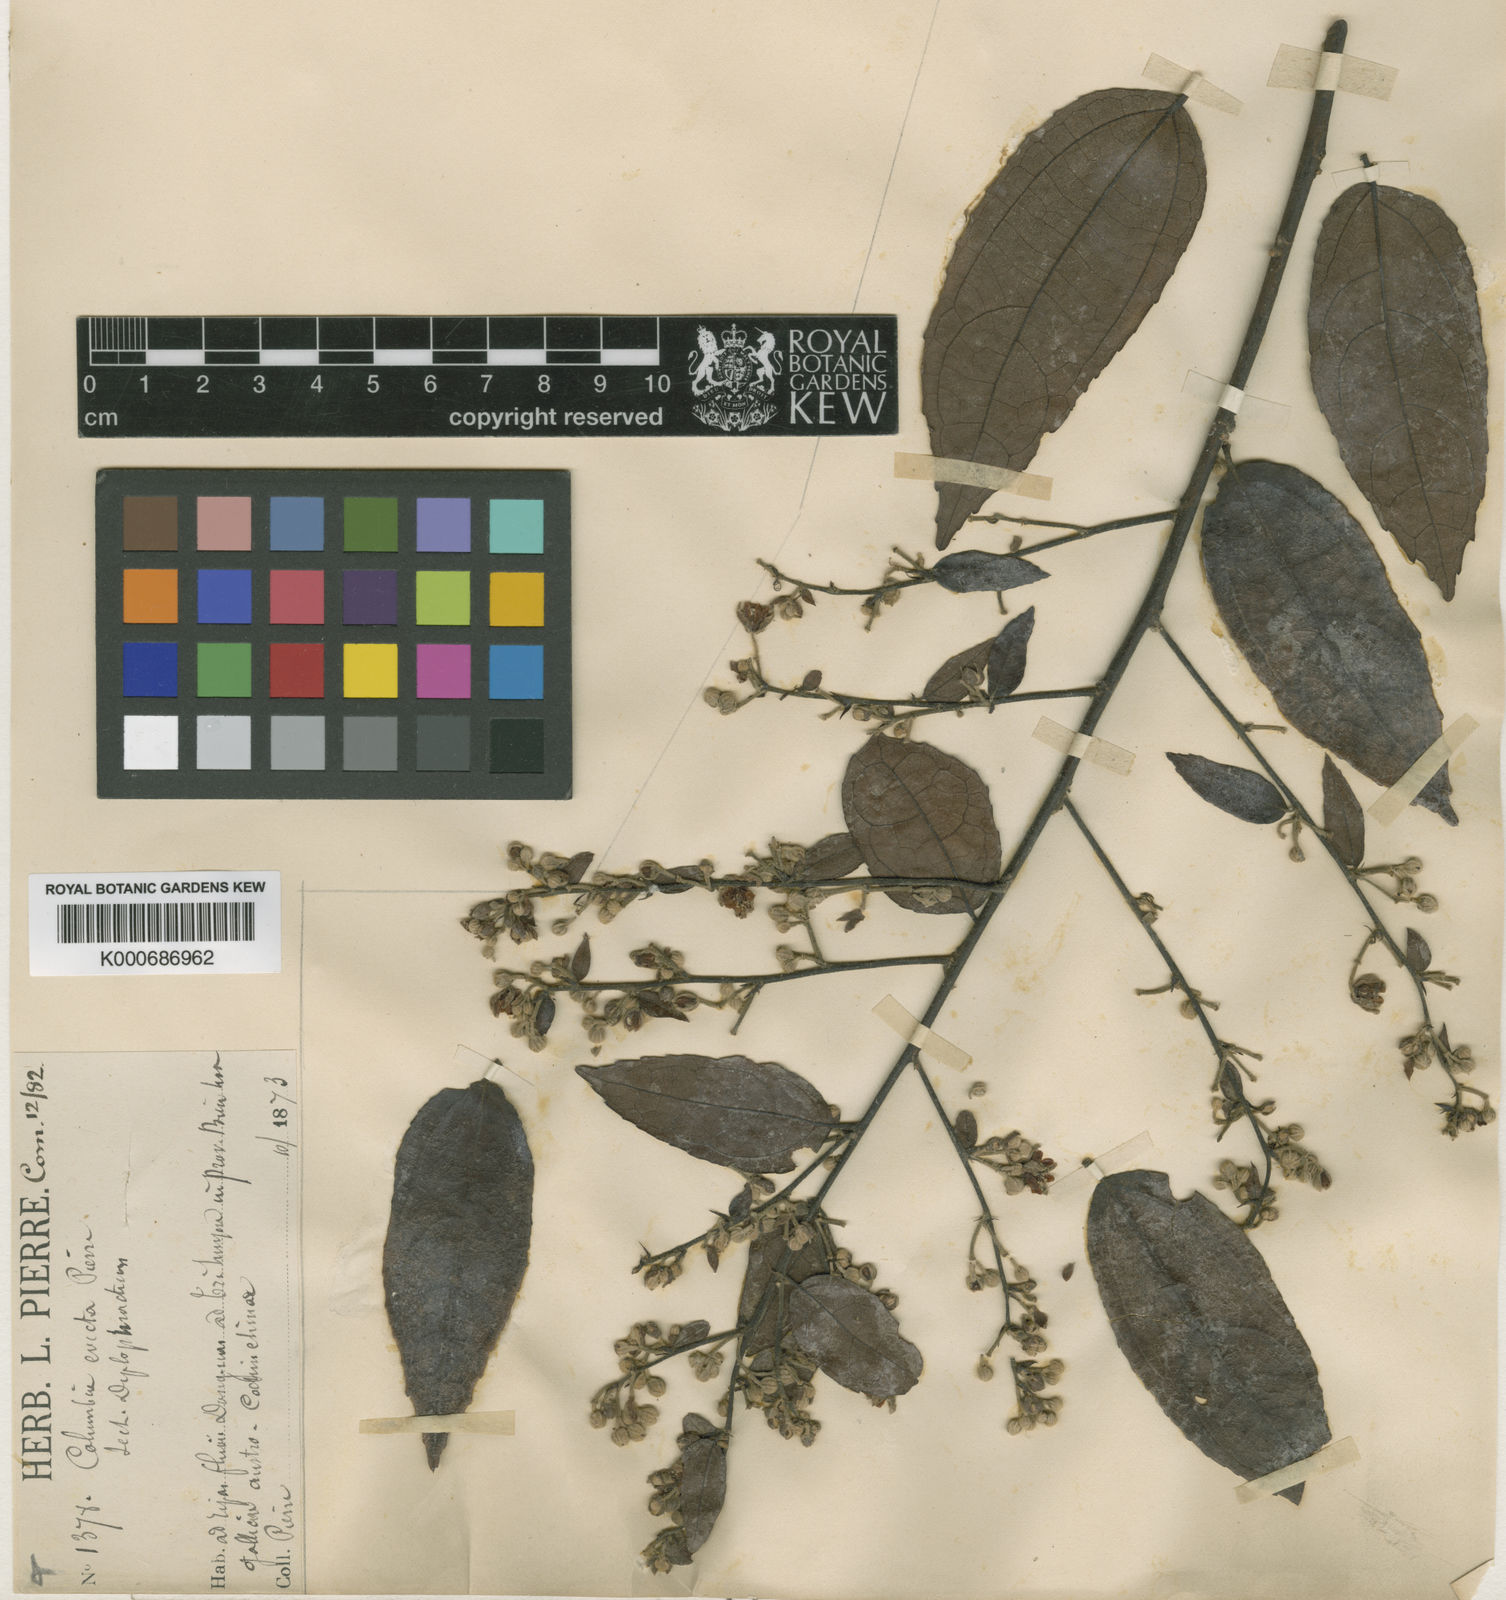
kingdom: Plantae
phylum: Tracheophyta
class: Magnoliopsida
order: Malvales
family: Malvaceae
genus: Colona
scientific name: Colona
